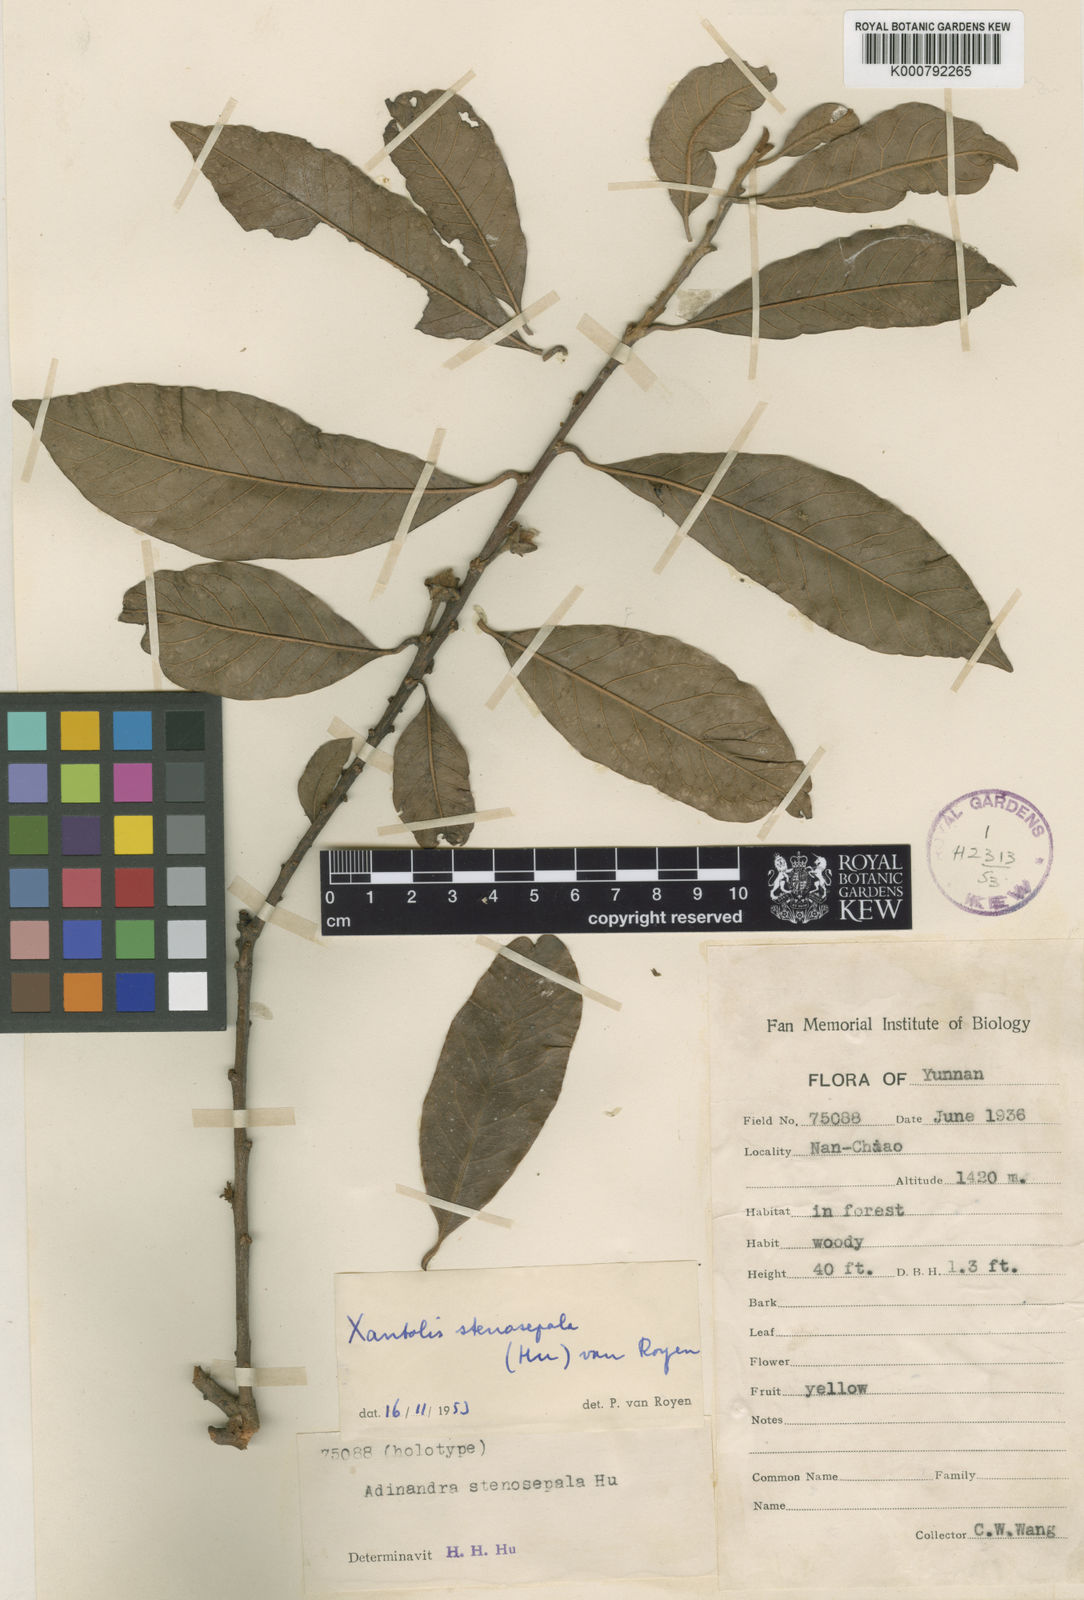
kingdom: Plantae
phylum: Tracheophyta
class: Magnoliopsida
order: Ericales
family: Sapotaceae
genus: Xantolis
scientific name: Xantolis stenosepala
